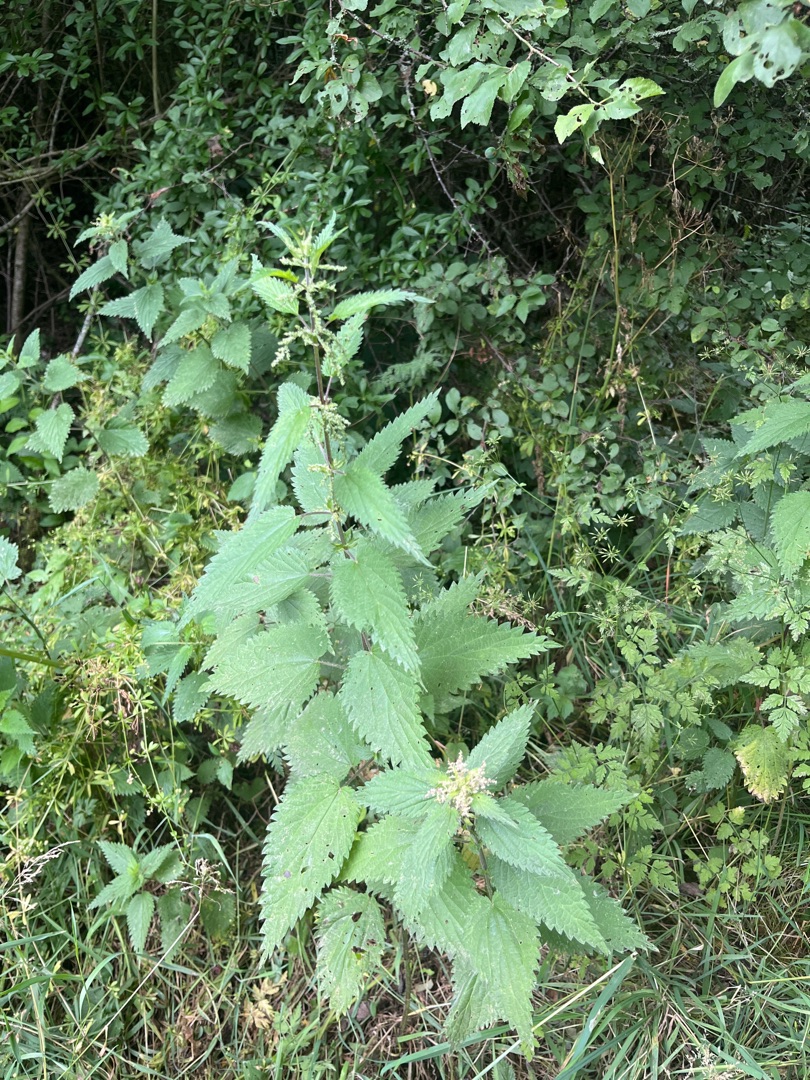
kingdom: Plantae
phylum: Tracheophyta
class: Magnoliopsida
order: Rosales
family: Urticaceae
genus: Urtica
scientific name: Urtica dioica
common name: Stor nælde
